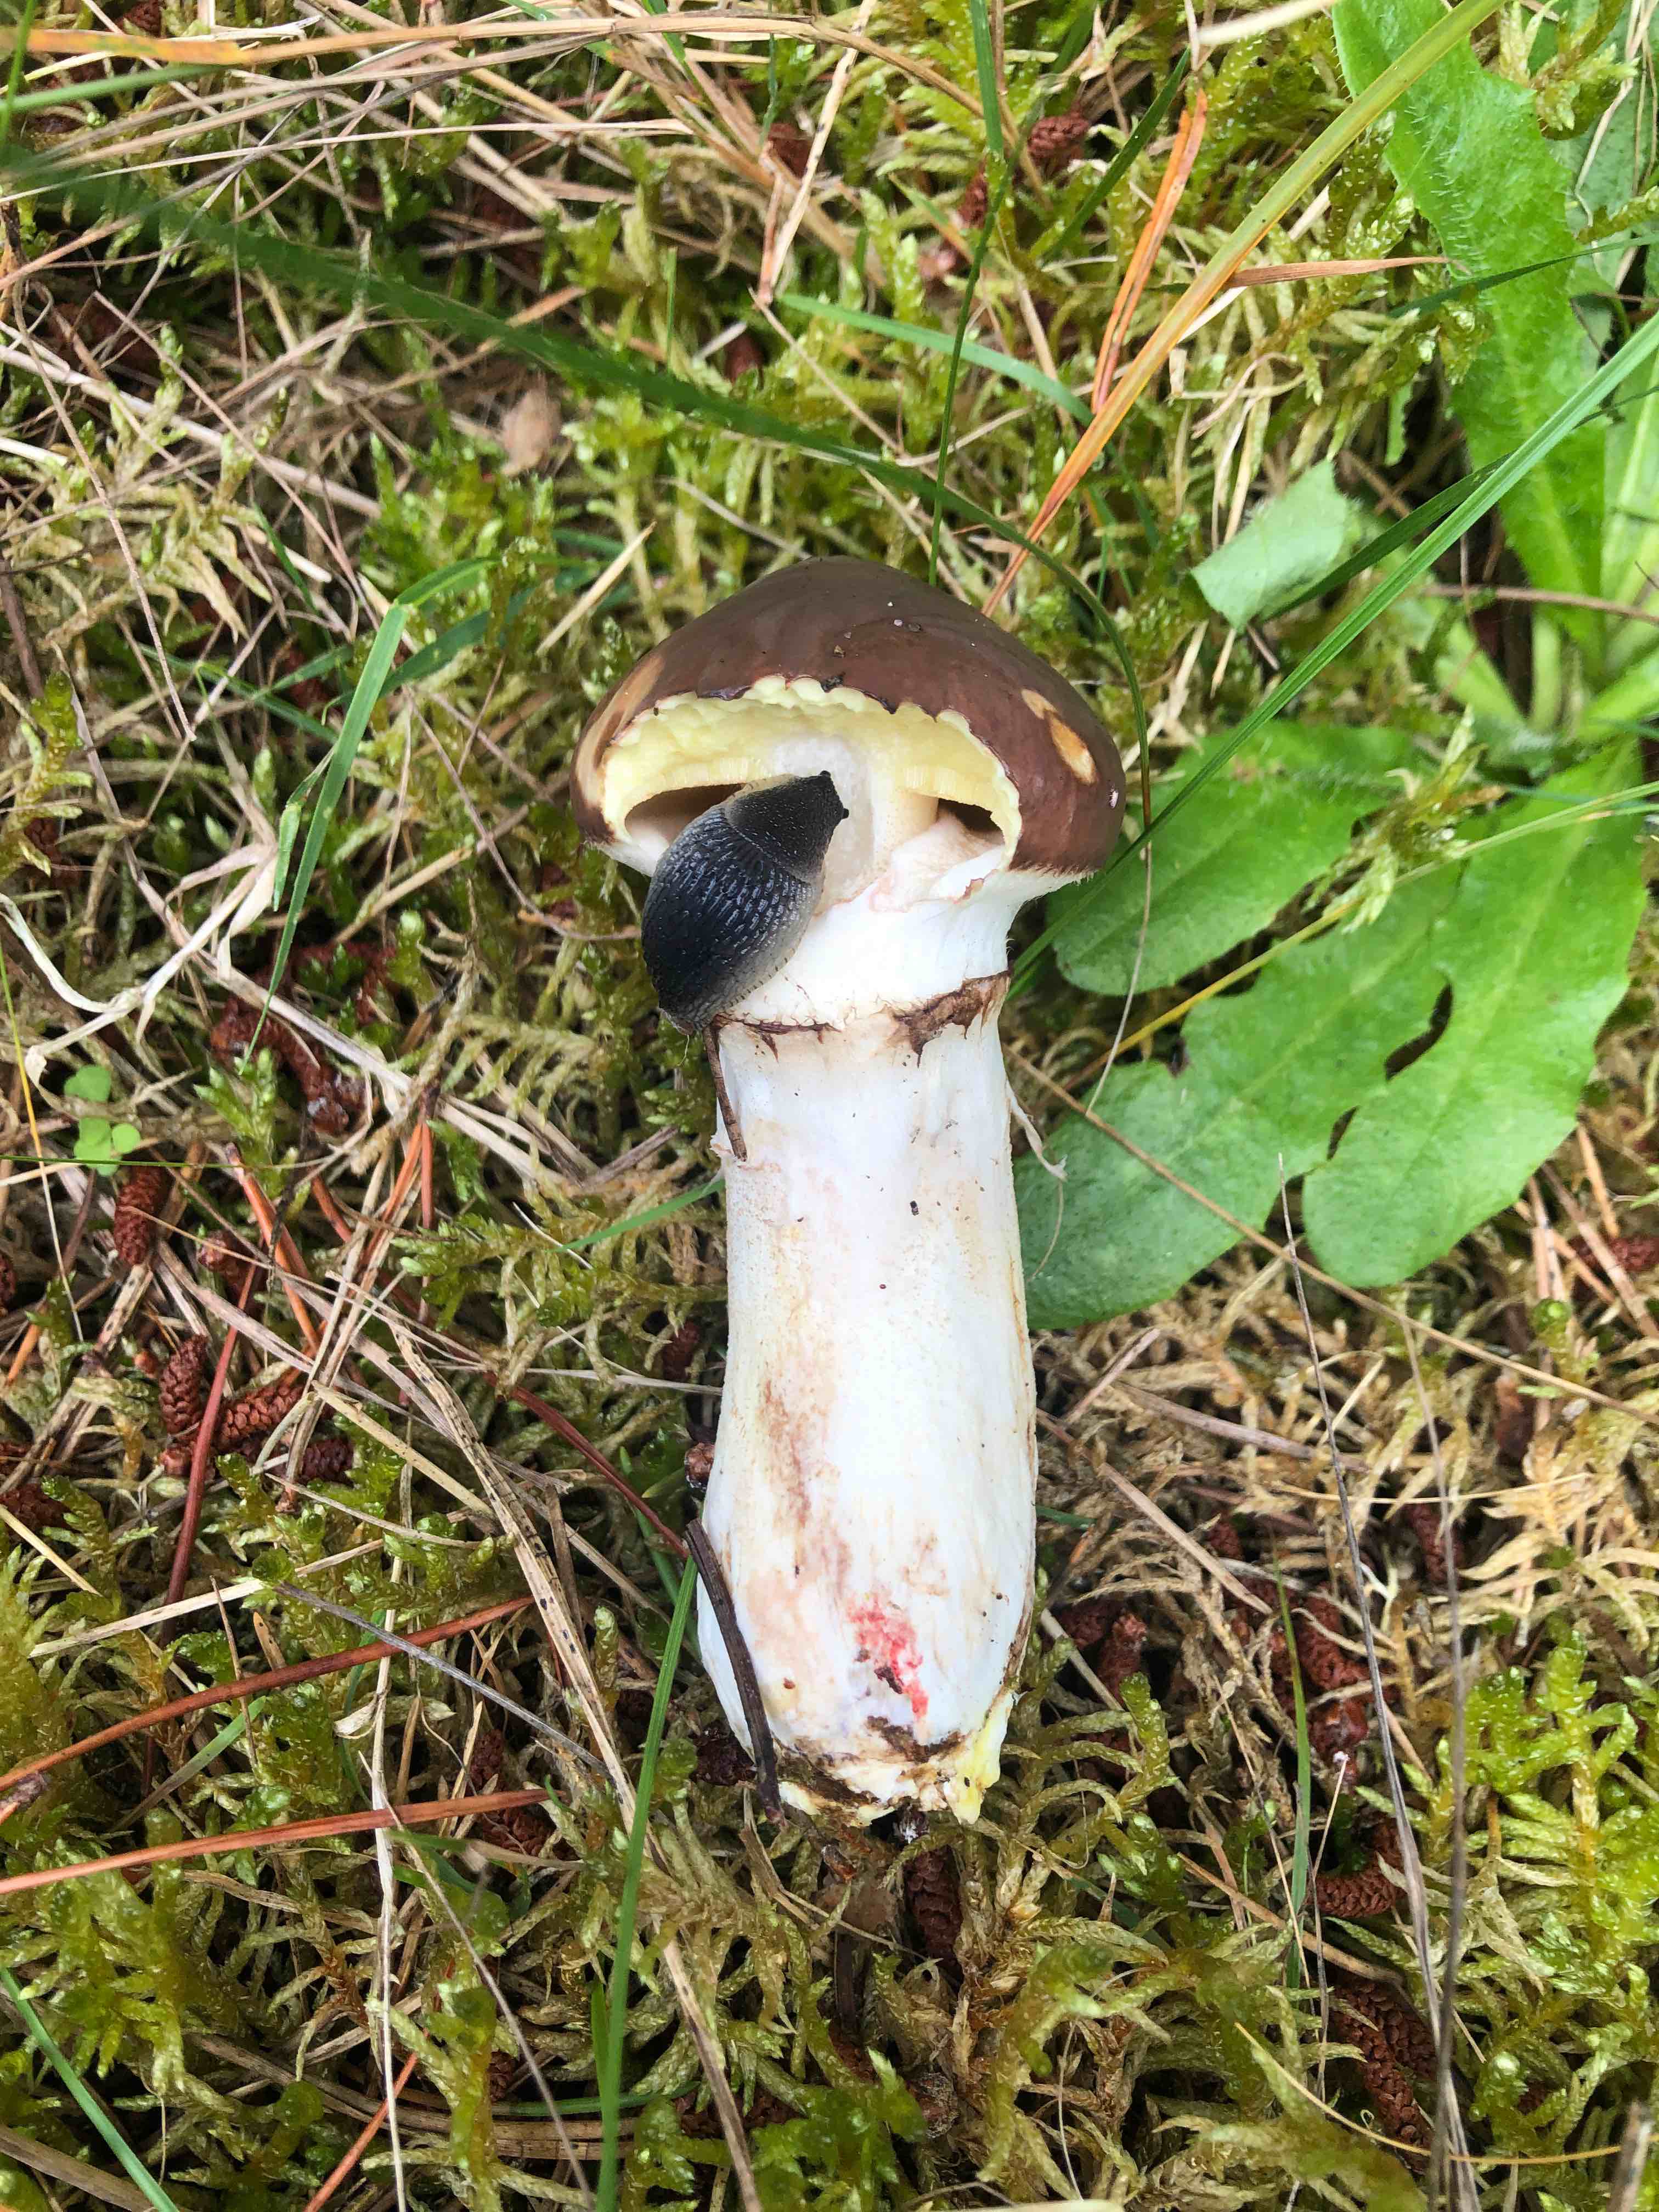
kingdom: Fungi
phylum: Basidiomycota
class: Agaricomycetes
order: Boletales
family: Suillaceae
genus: Suillus
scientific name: Suillus luteus
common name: brungul slimrørhat
